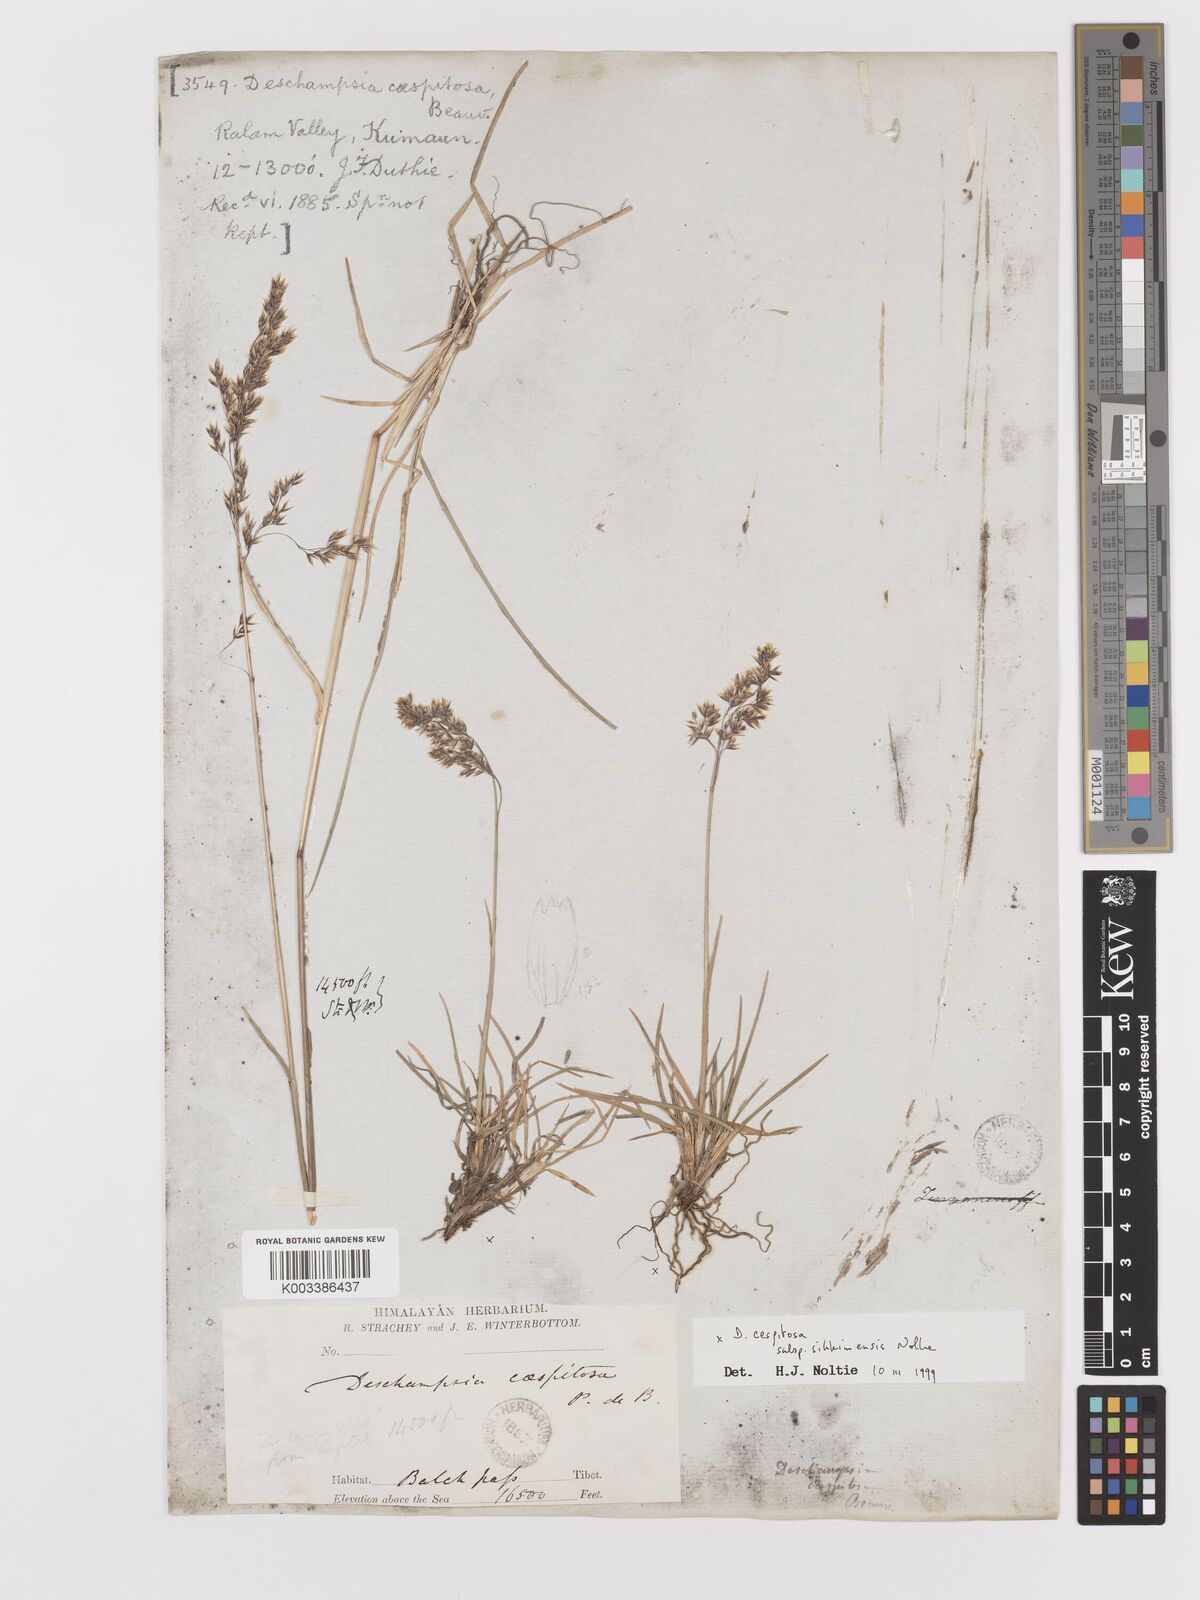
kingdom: Plantae
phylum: Tracheophyta
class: Liliopsida
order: Poales
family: Poaceae
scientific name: Poaceae
